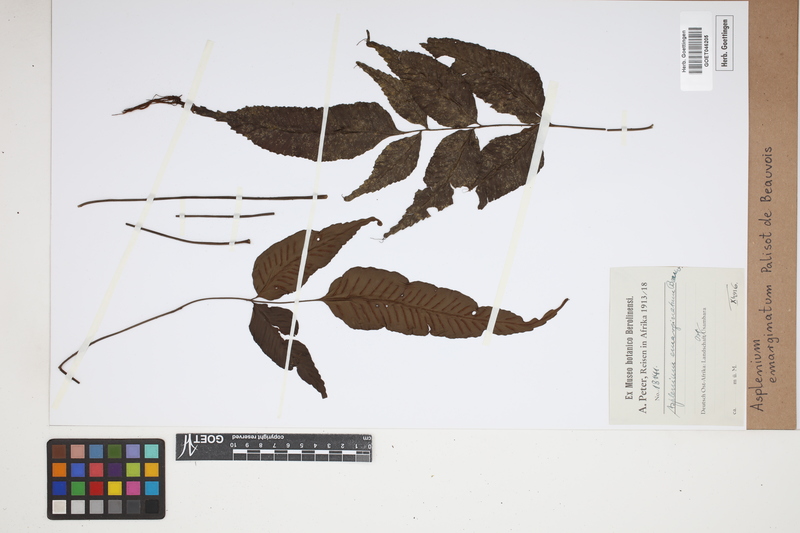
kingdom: Plantae
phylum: Tracheophyta
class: Polypodiopsida
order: Polypodiales
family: Aspleniaceae
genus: Asplenium
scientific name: Asplenium emarginatum
